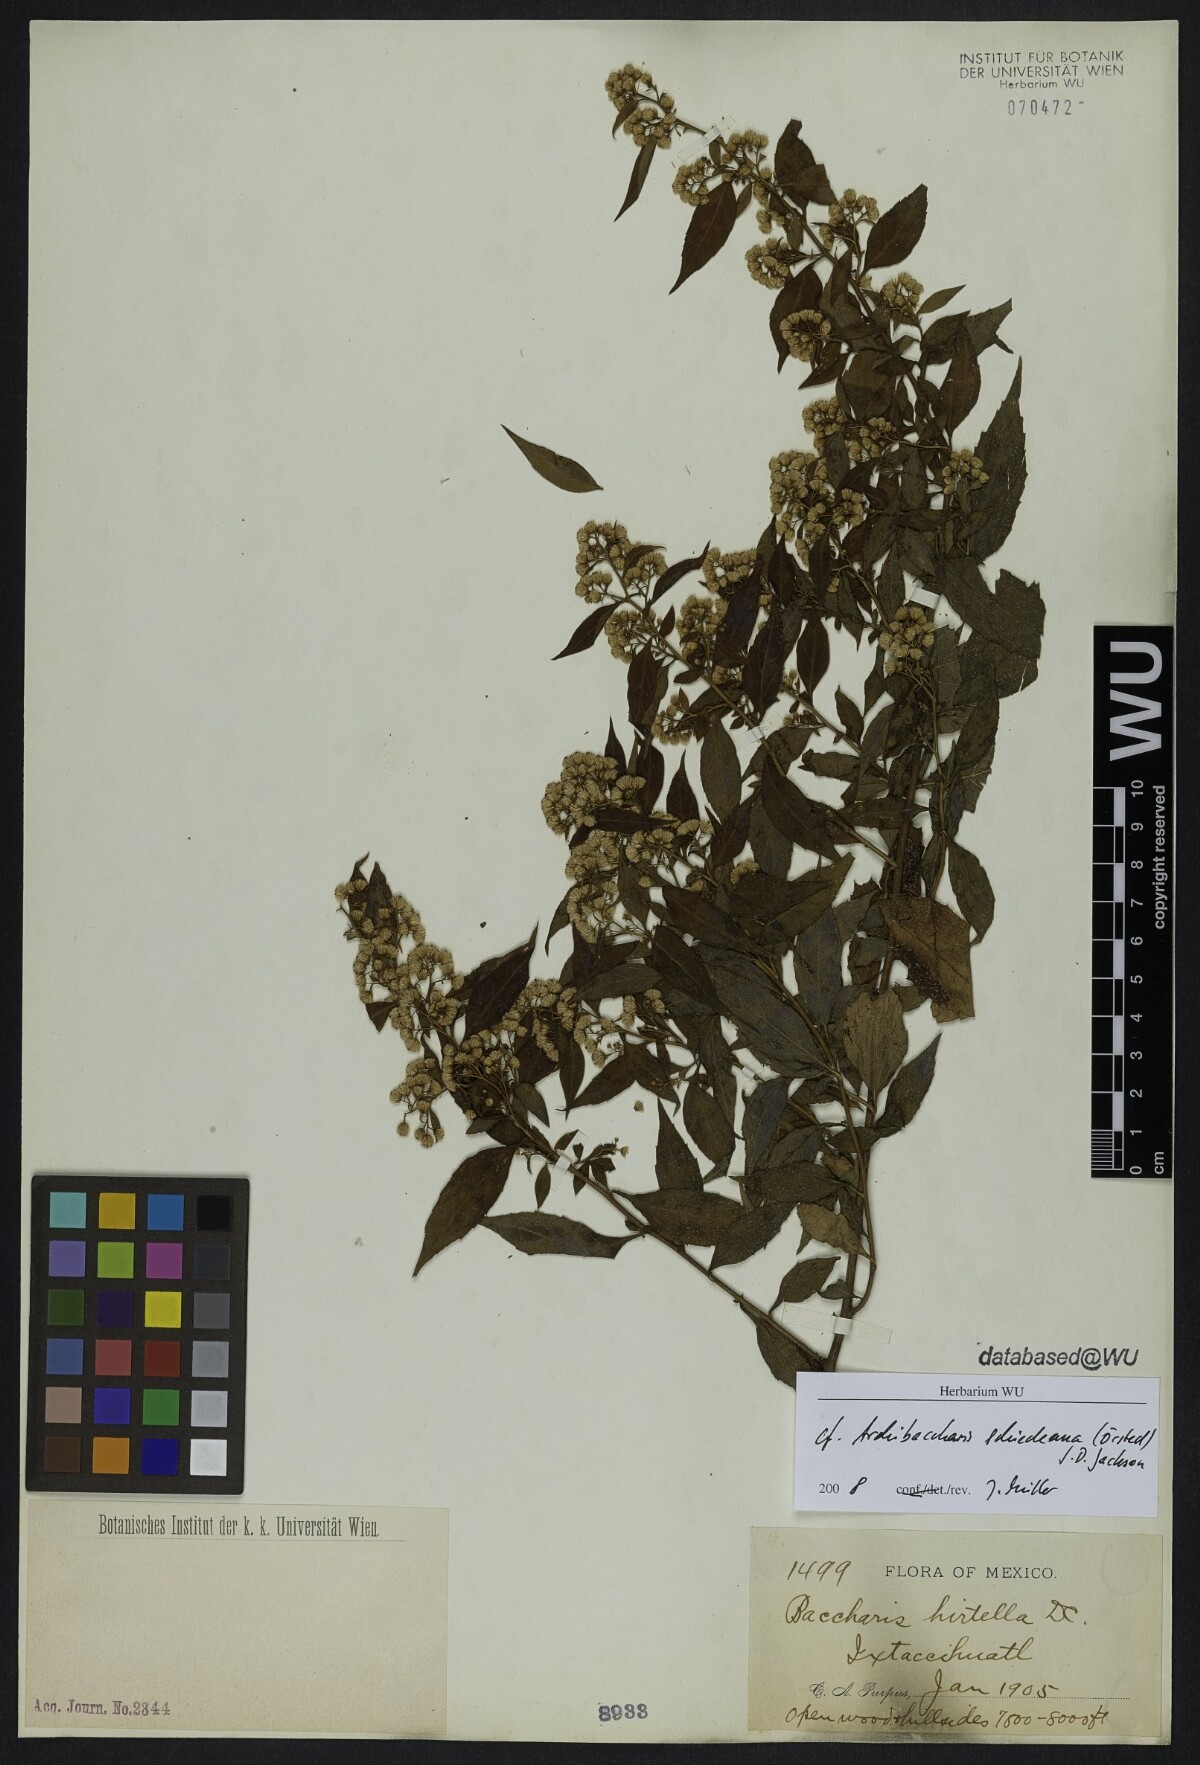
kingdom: Plantae
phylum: Tracheophyta
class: Magnoliopsida
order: Asterales
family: Asteraceae
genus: Archibaccharis
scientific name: Archibaccharis schiedeana
